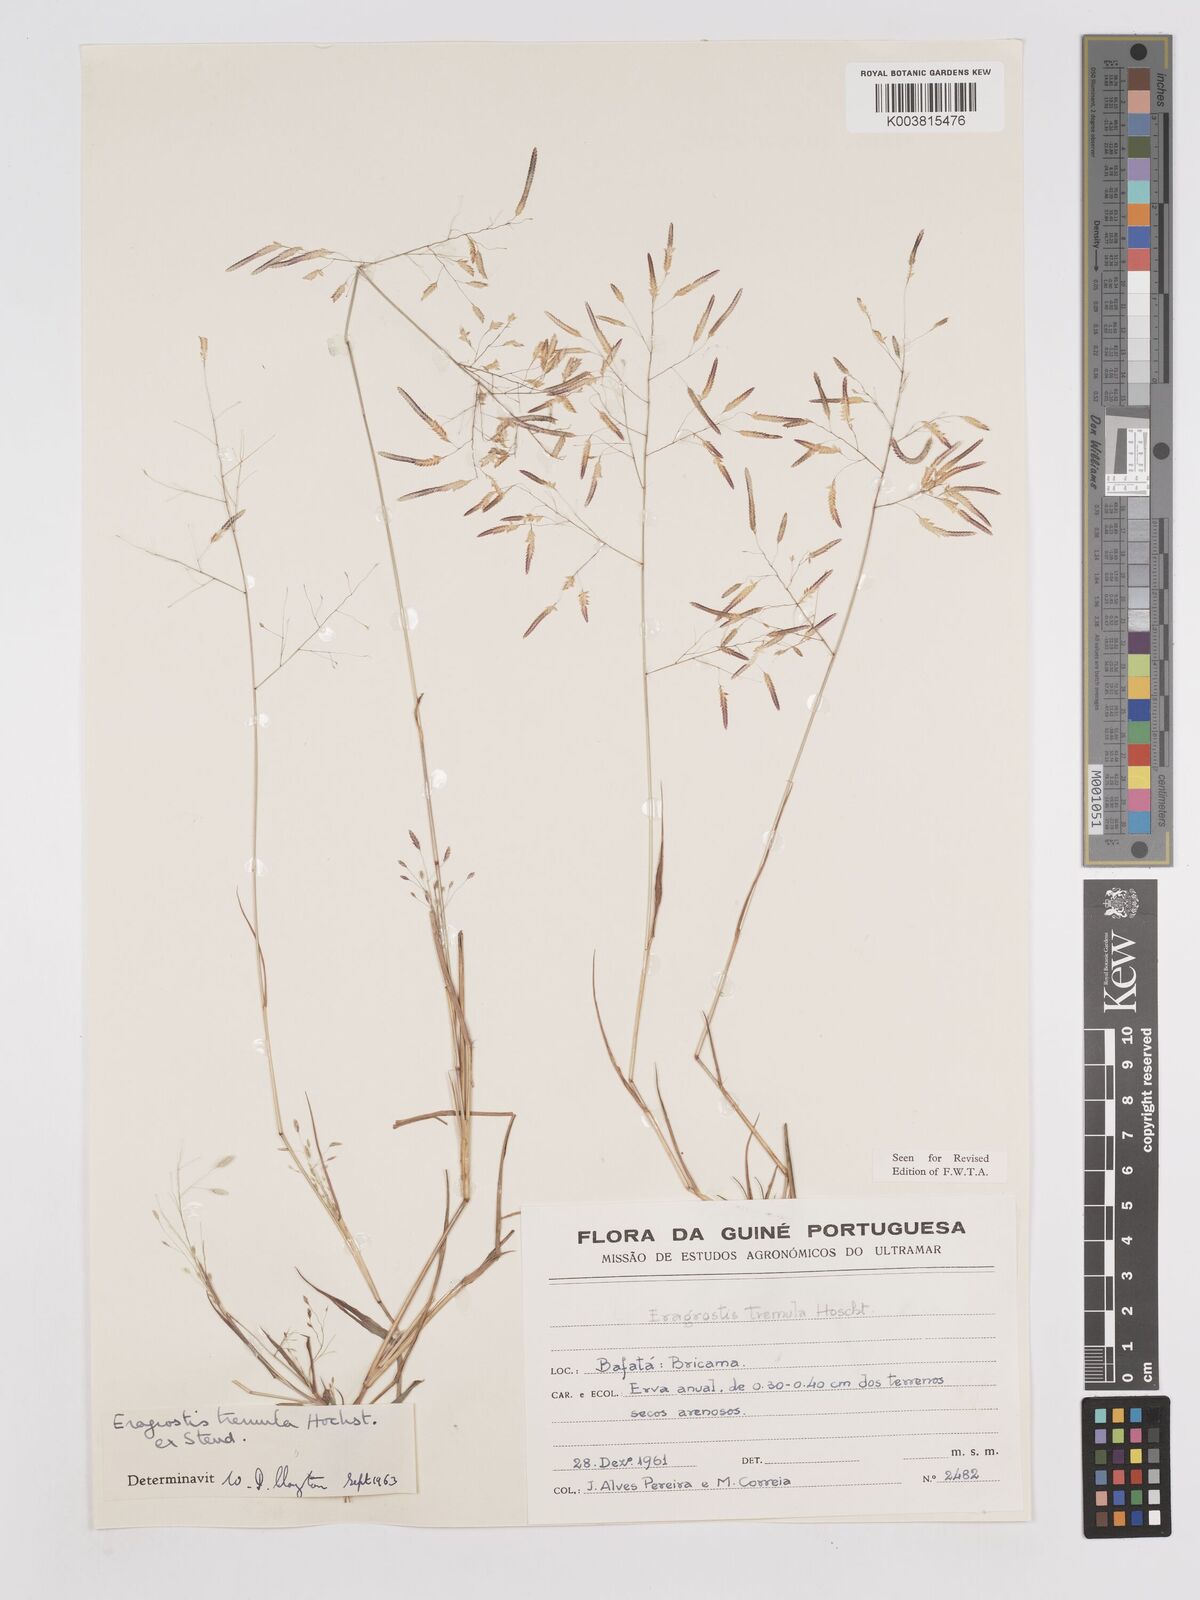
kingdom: Plantae
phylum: Tracheophyta
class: Liliopsida
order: Poales
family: Poaceae
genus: Eragrostis
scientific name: Eragrostis tremula
